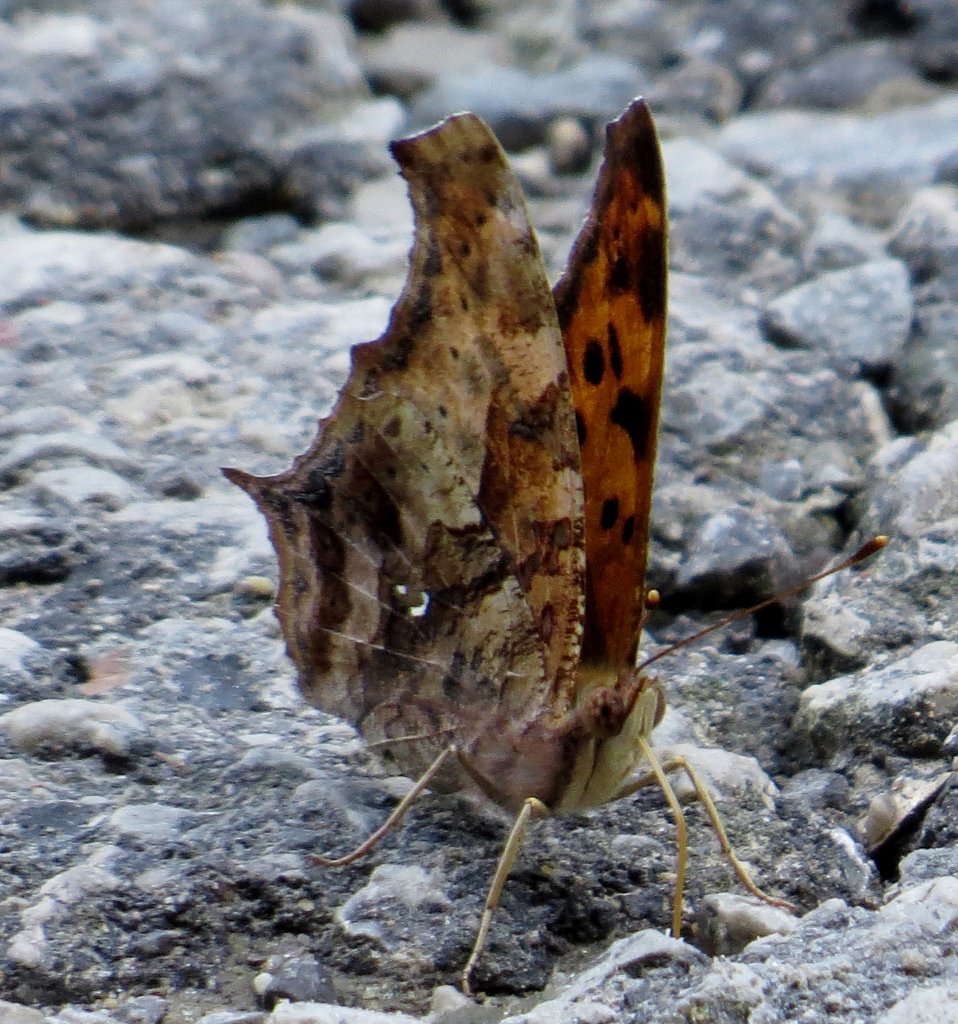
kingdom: Animalia
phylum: Arthropoda
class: Insecta
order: Lepidoptera
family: Nymphalidae
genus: Polygonia
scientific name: Polygonia interrogationis
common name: Question Mark
